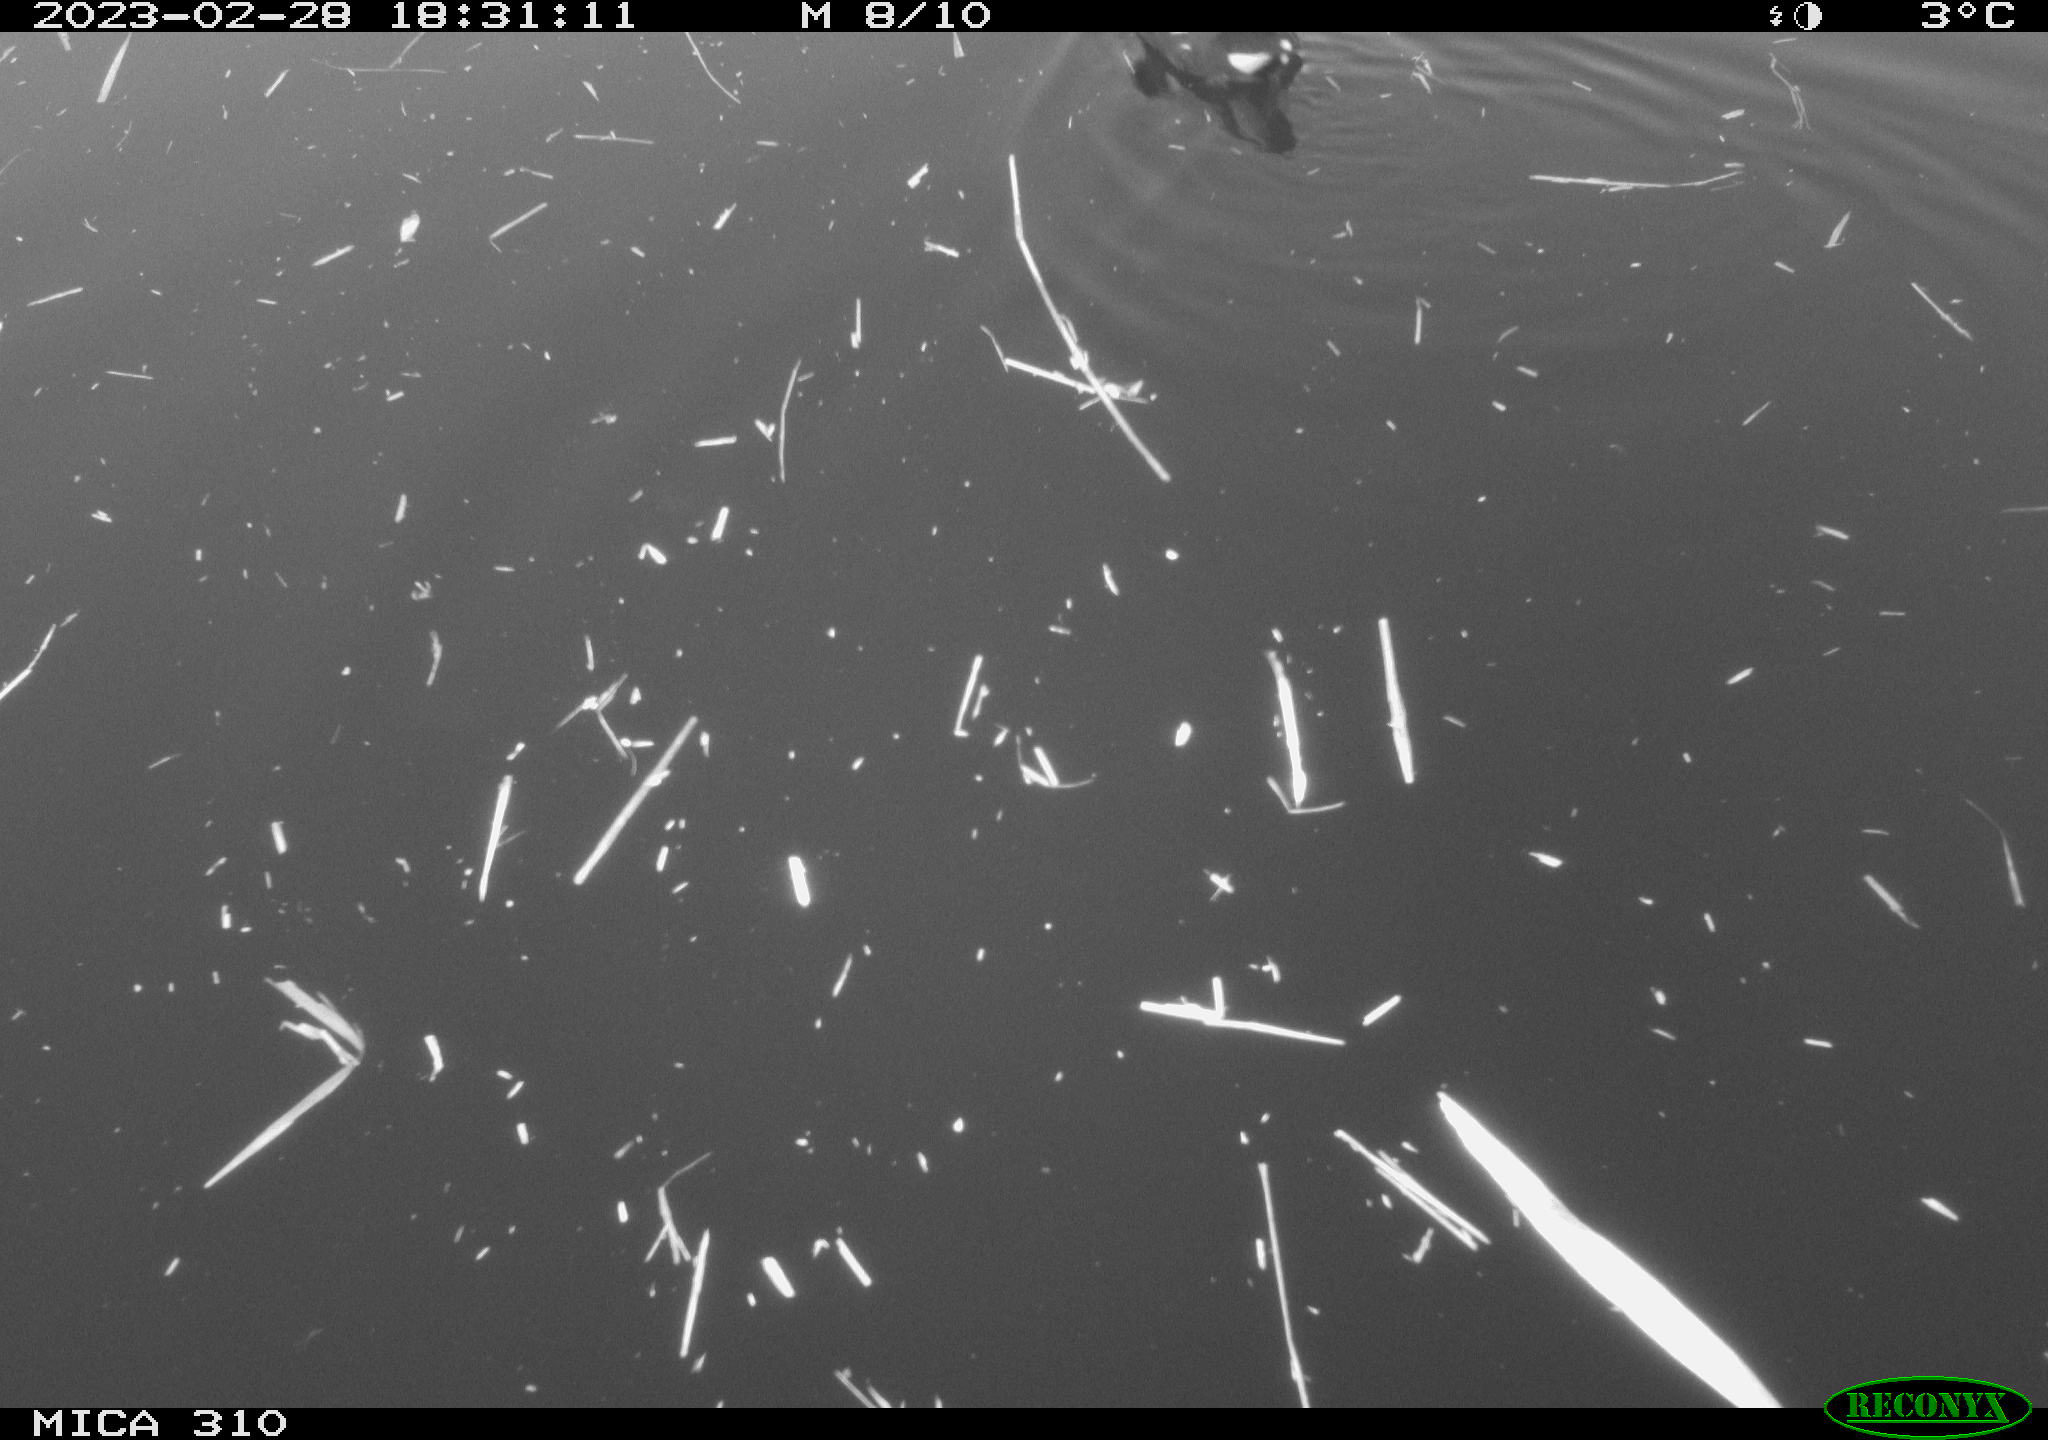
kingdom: Animalia
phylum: Chordata
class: Aves
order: Gruiformes
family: Rallidae
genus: Gallinula
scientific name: Gallinula chloropus
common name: Common moorhen
